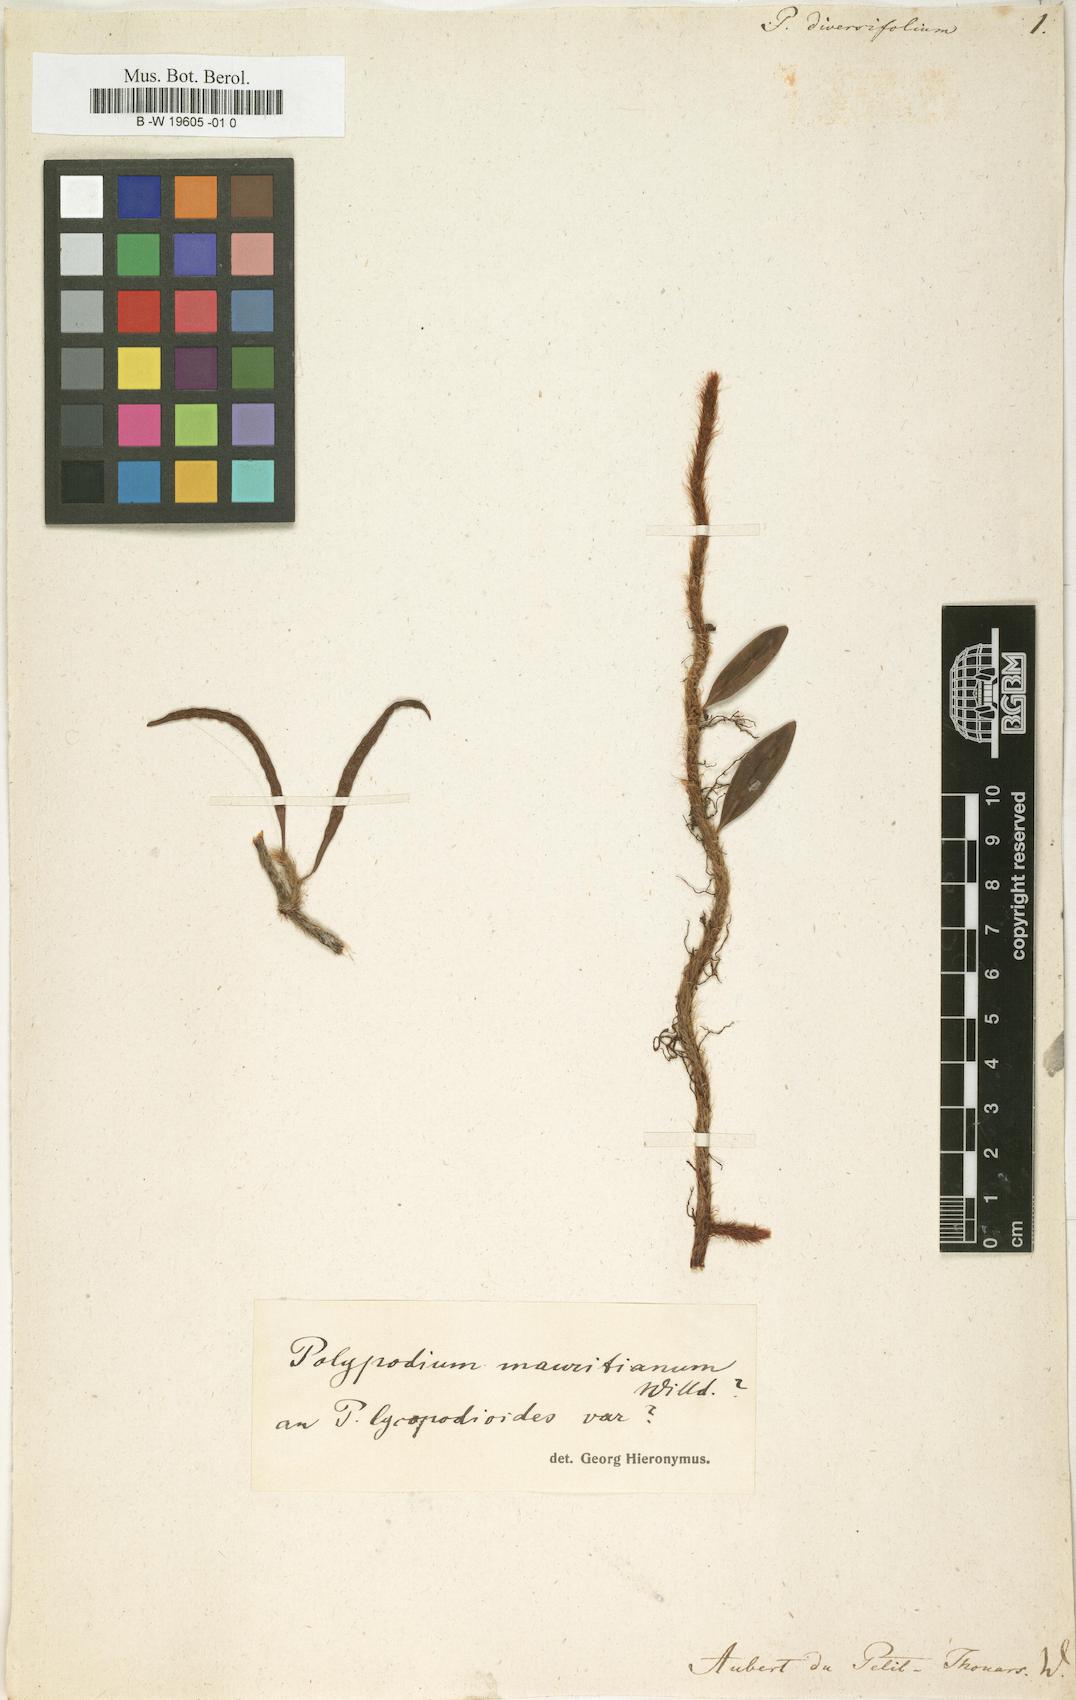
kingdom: Plantae
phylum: Tracheophyta
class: Polypodiopsida
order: Polypodiales
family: Polypodiaceae
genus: Lecanopteris
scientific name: Lecanopteris pustulata
